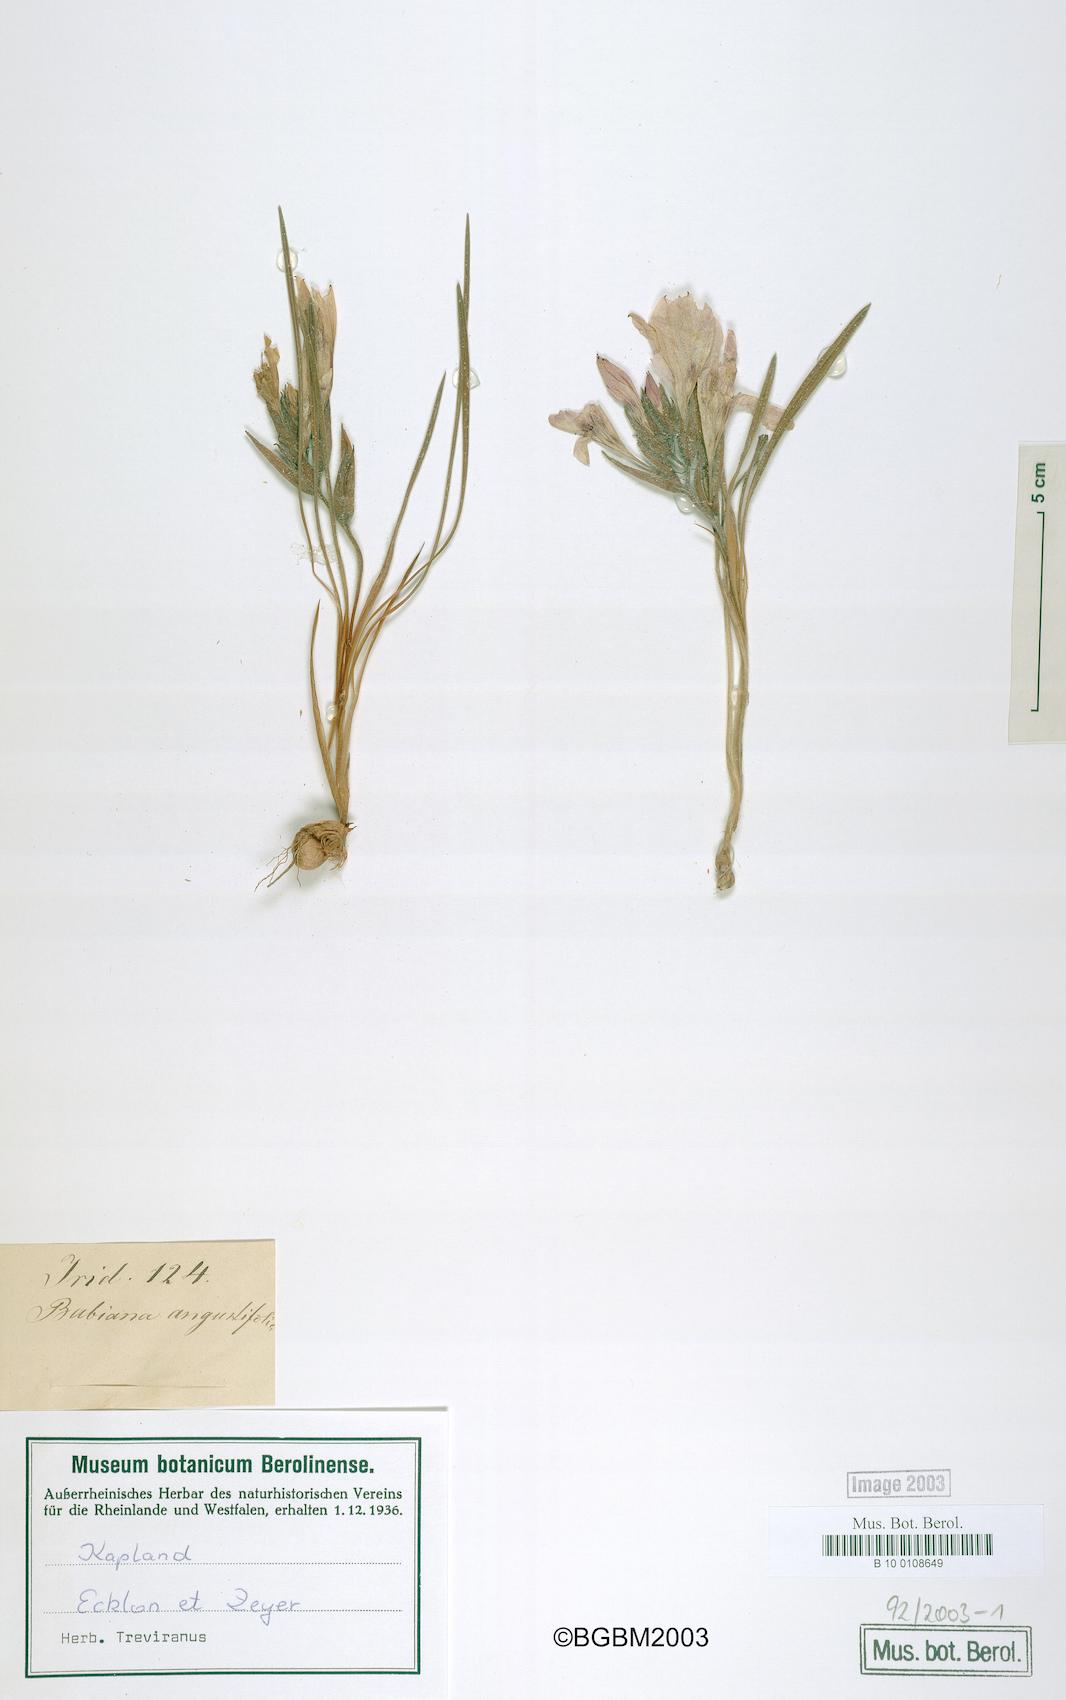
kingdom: Plantae
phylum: Tracheophyta
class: Liliopsida
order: Asparagales
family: Iridaceae
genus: Babiana
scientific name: Babiana angustifolia
